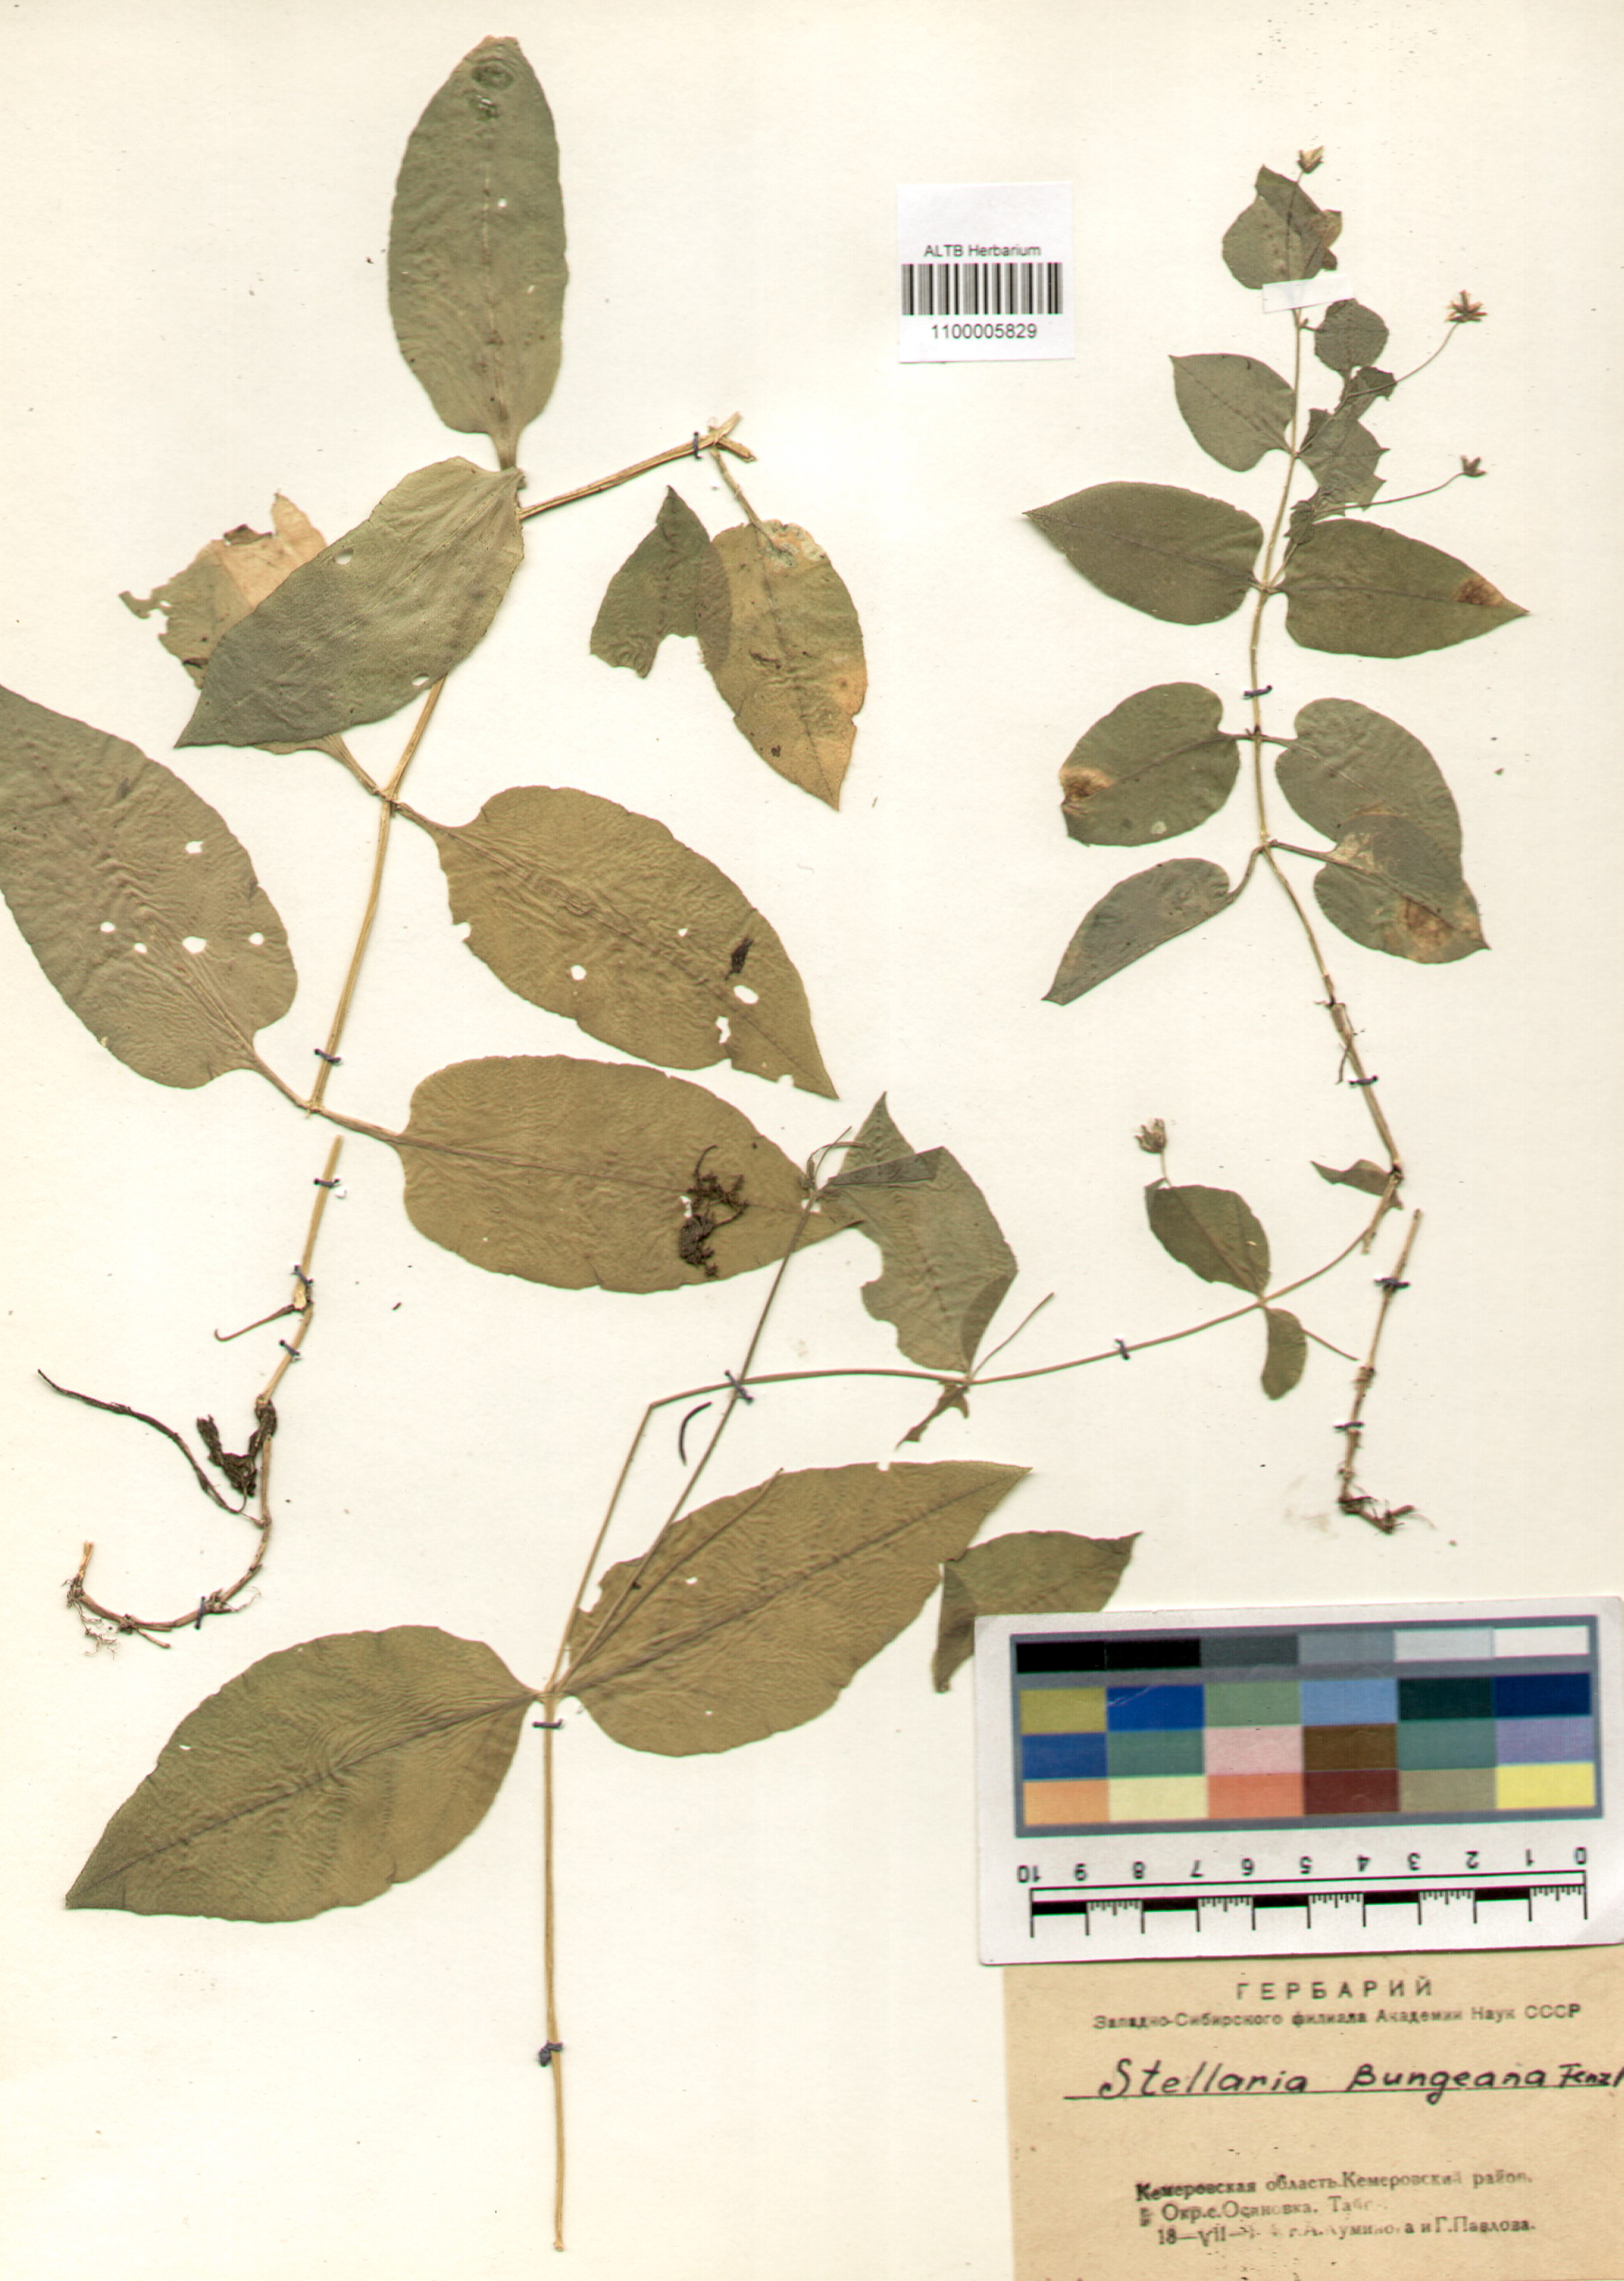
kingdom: Plantae
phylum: Tracheophyta
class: Magnoliopsida
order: Caryophyllales
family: Caryophyllaceae
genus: Stellaria
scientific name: Stellaria bungeana
